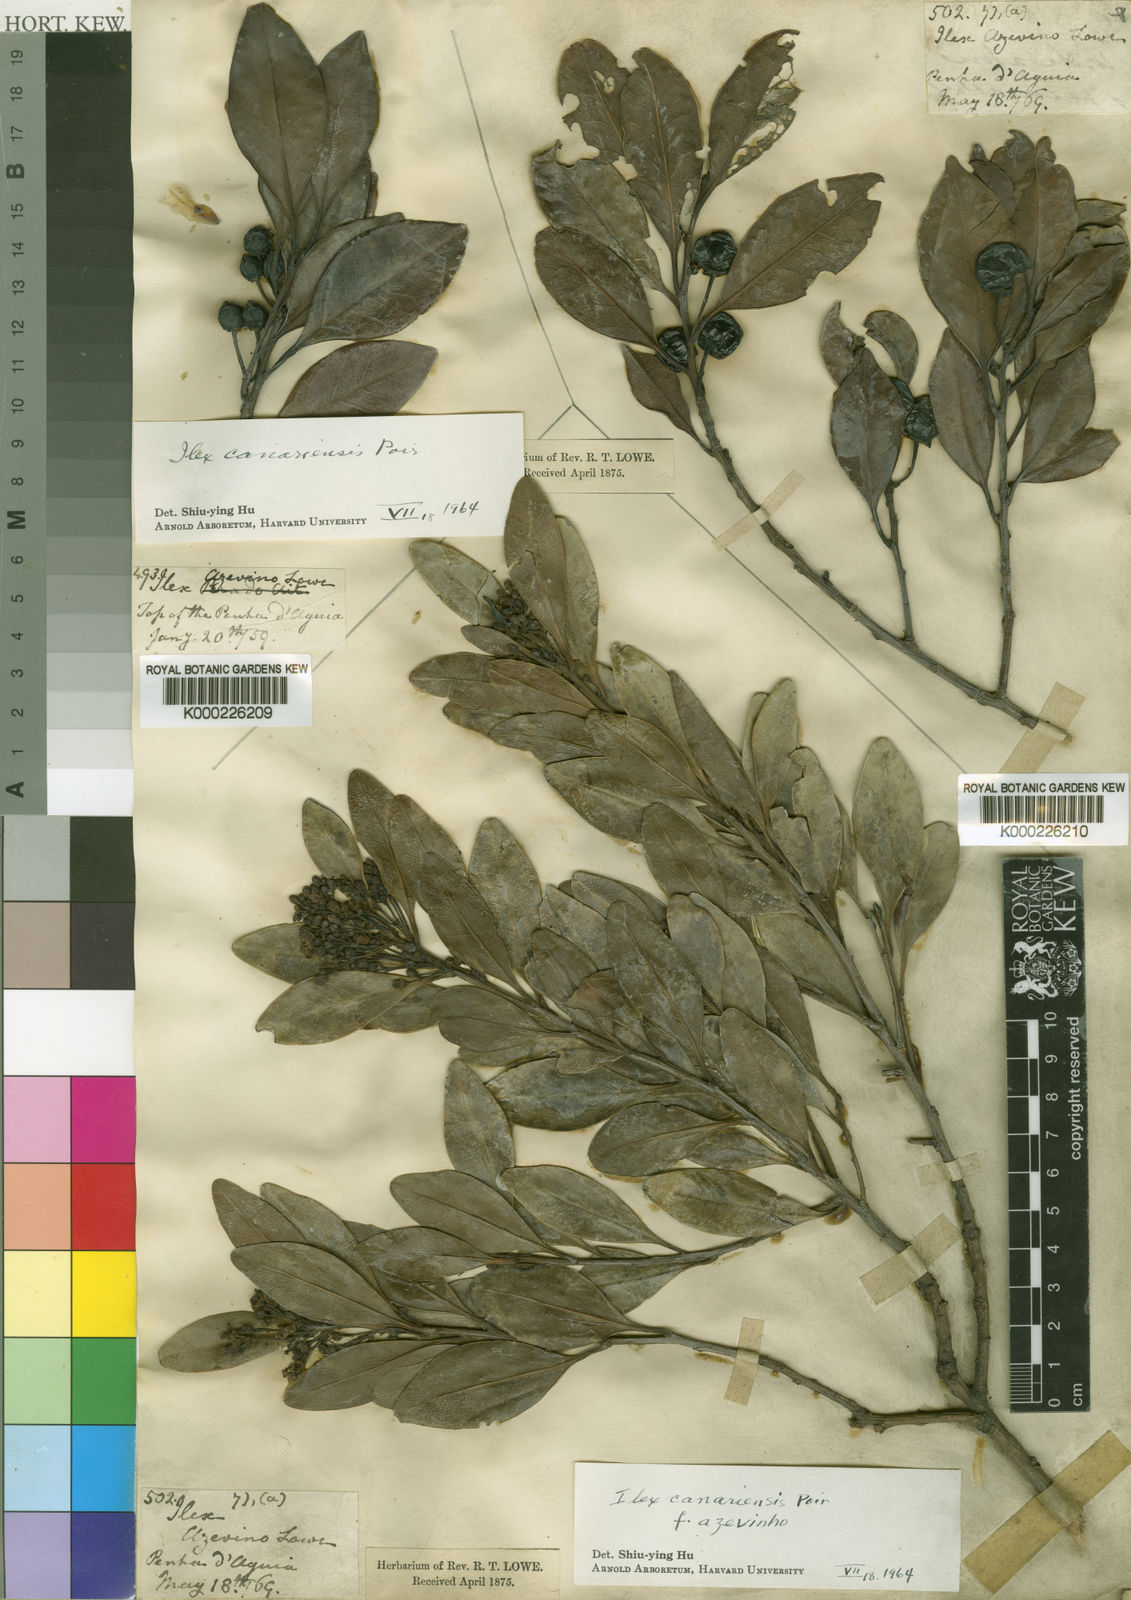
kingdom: Plantae
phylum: Tracheophyta
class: Magnoliopsida
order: Aquifoliales
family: Aquifoliaceae
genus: Ilex
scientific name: Ilex canariensis
